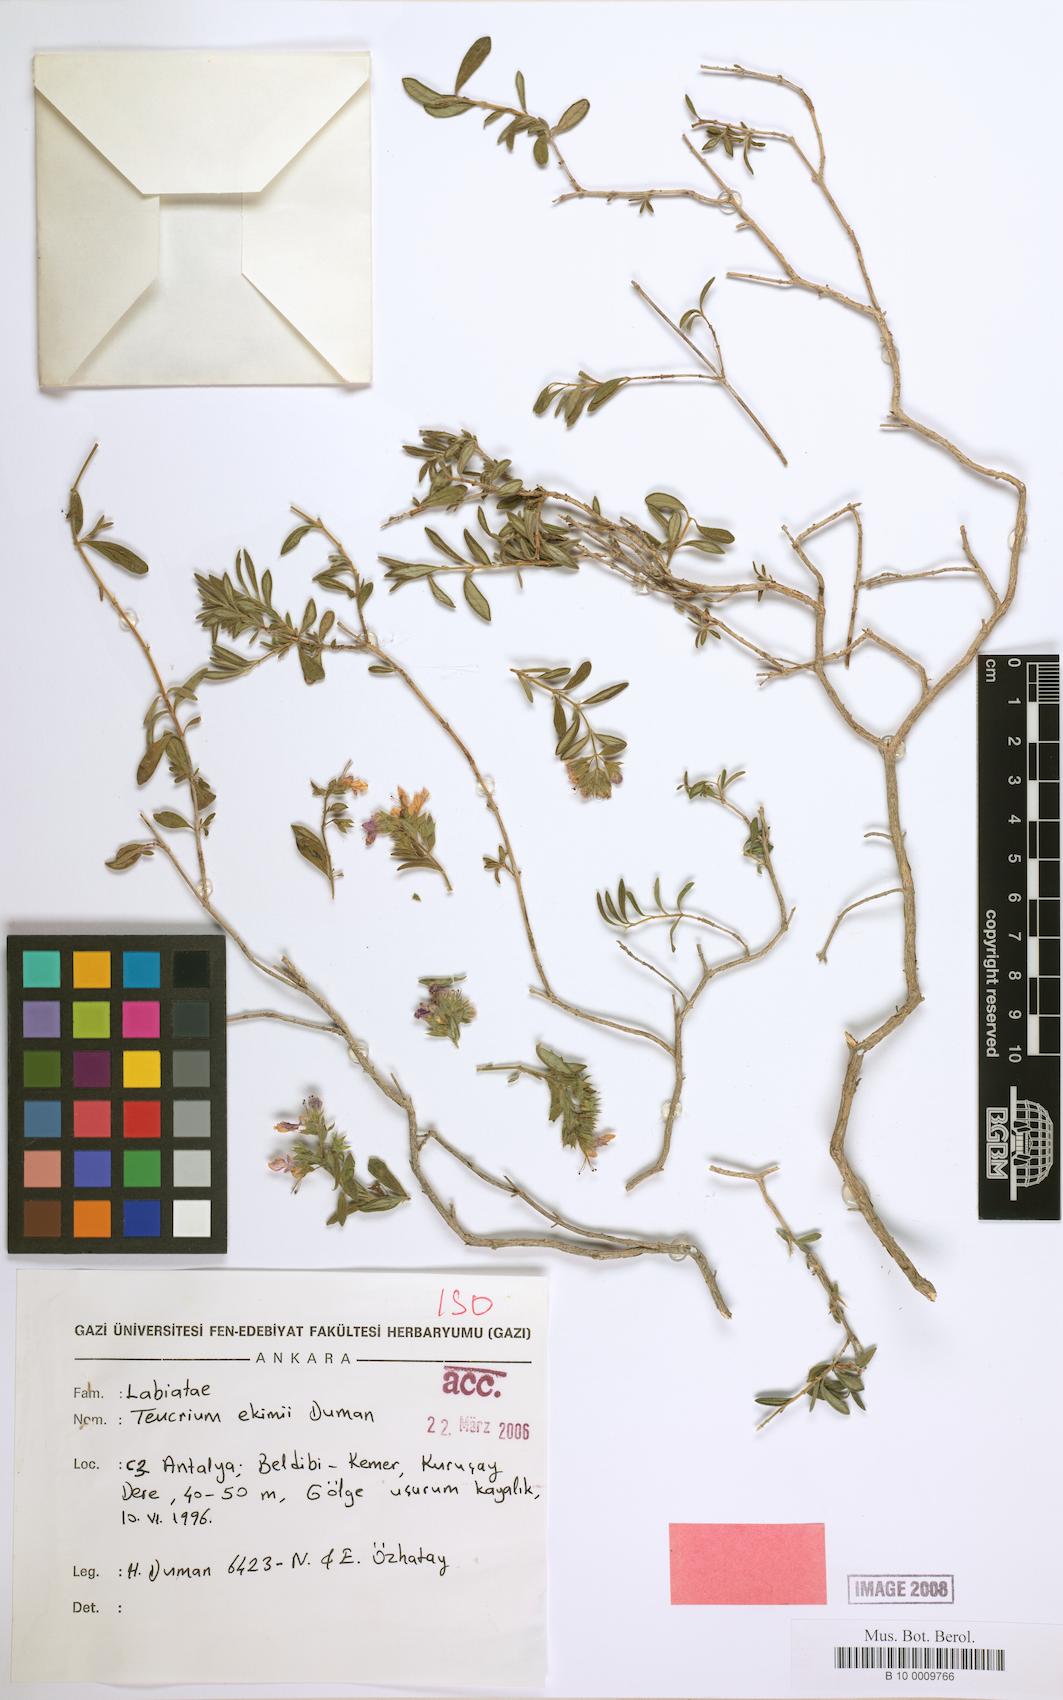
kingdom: Plantae
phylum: Tracheophyta
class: Magnoliopsida
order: Lamiales
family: Lamiaceae
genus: Teucrium
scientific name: Teucrium ekimii
